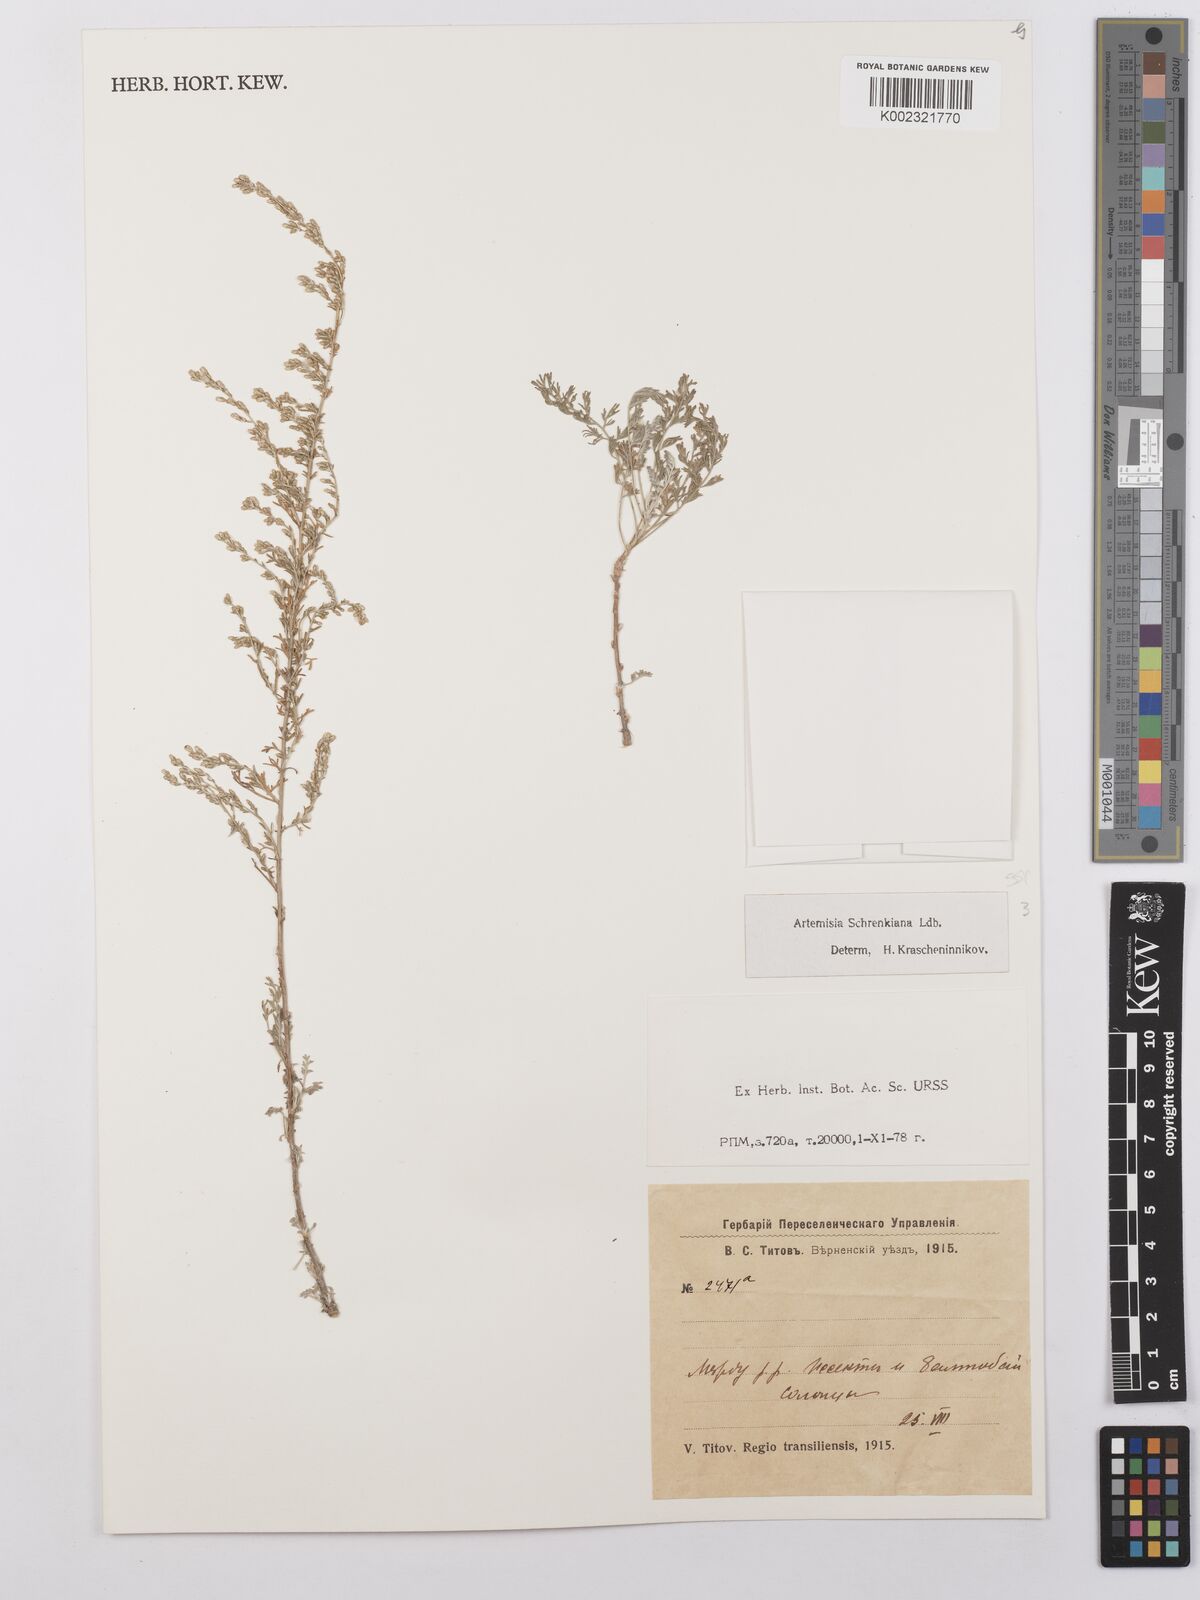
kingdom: Plantae
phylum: Tracheophyta
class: Magnoliopsida
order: Asterales
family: Asteraceae
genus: Artemisia
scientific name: Artemisia schrenkiana
